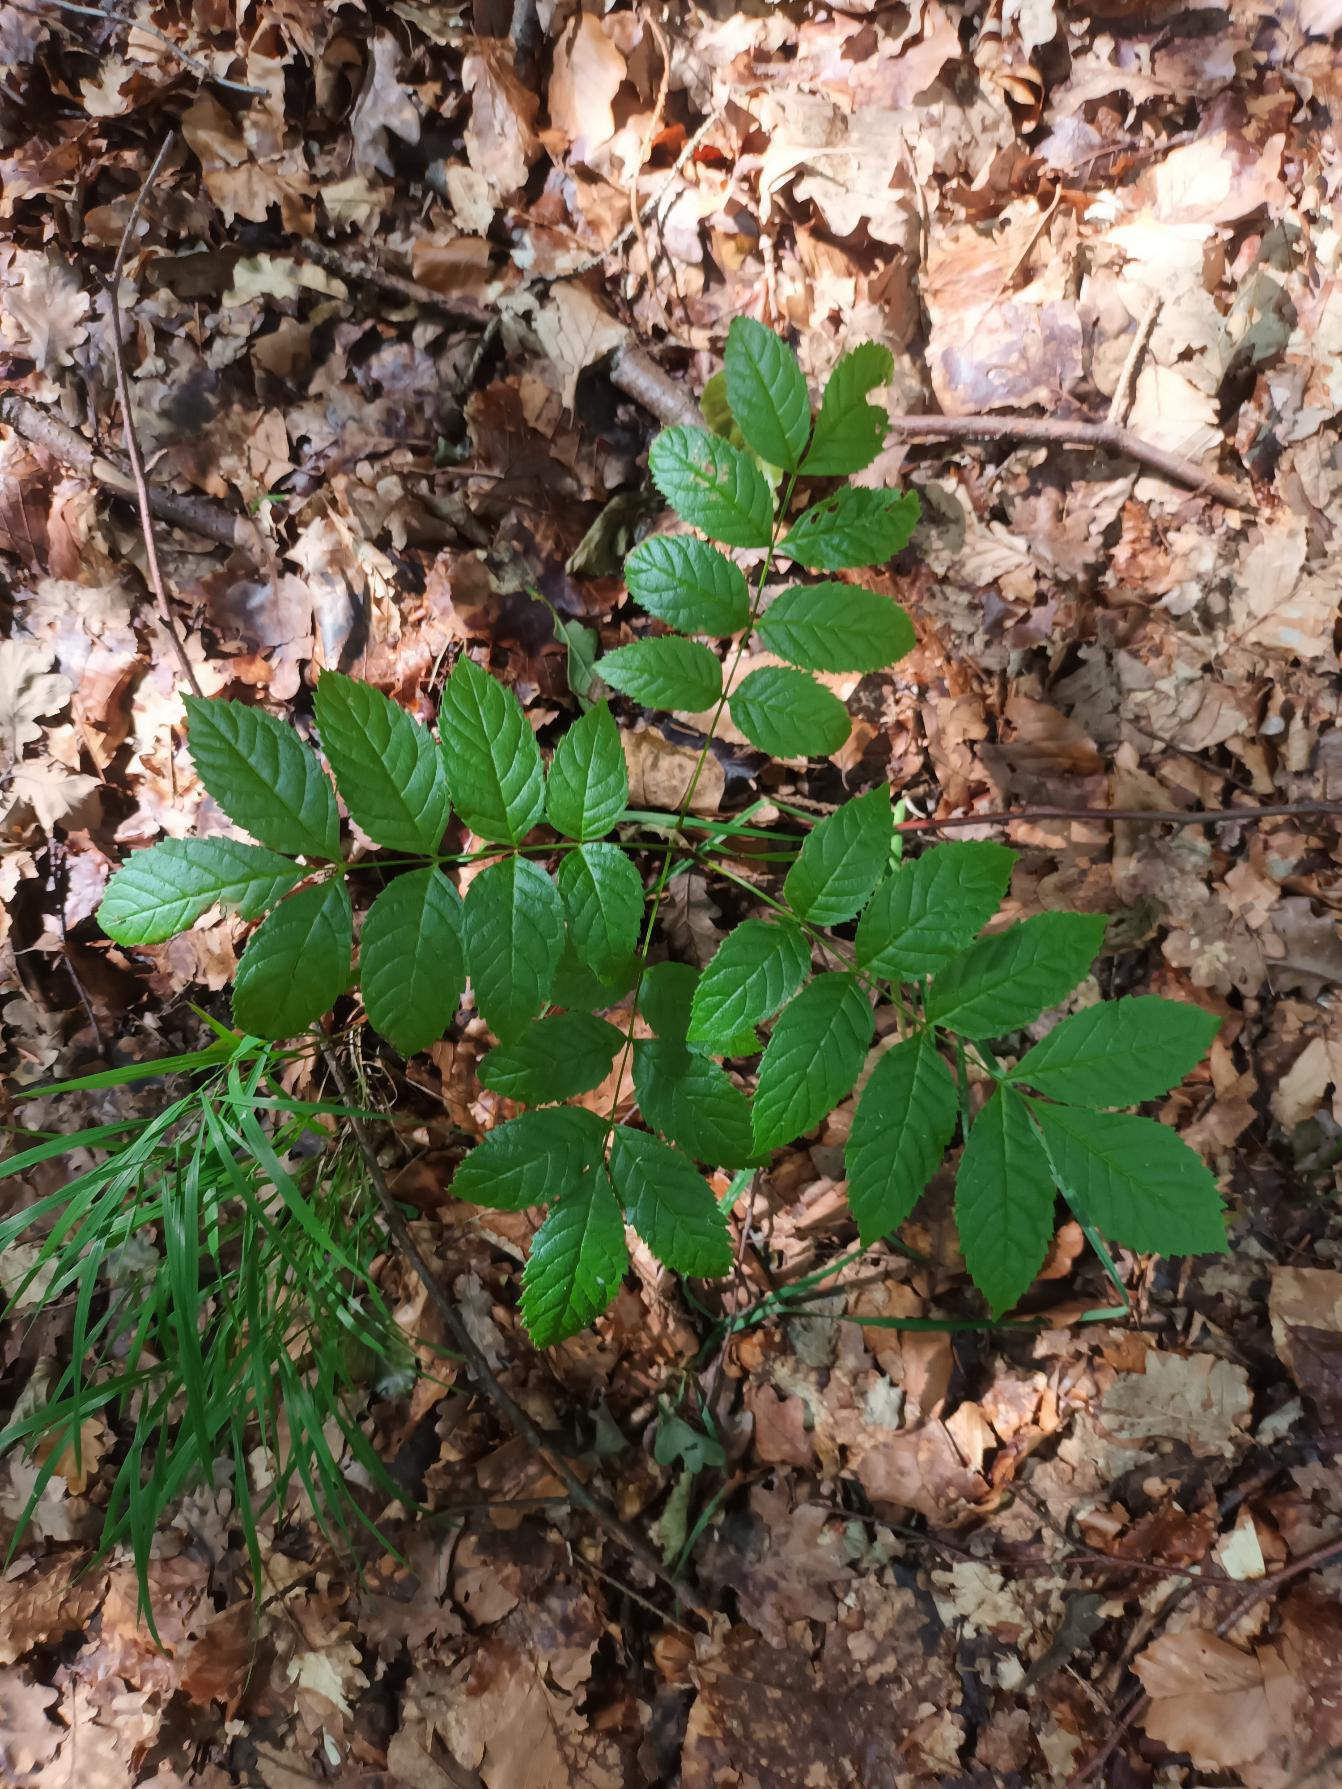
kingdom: Plantae
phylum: Tracheophyta
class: Magnoliopsida
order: Lamiales
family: Oleaceae
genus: Fraxinus
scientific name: Fraxinus excelsior
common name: Ask
